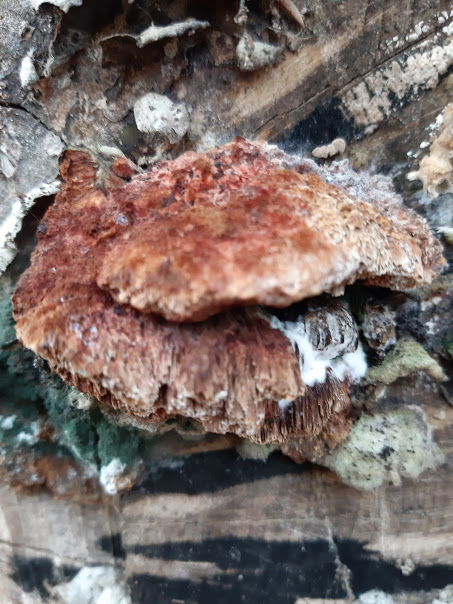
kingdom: Fungi
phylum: Basidiomycota
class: Agaricomycetes
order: Hymenochaetales
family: Hymenochaetaceae
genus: Mensularia
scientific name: Mensularia nodulosa
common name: bøge-spejlporesvamp
